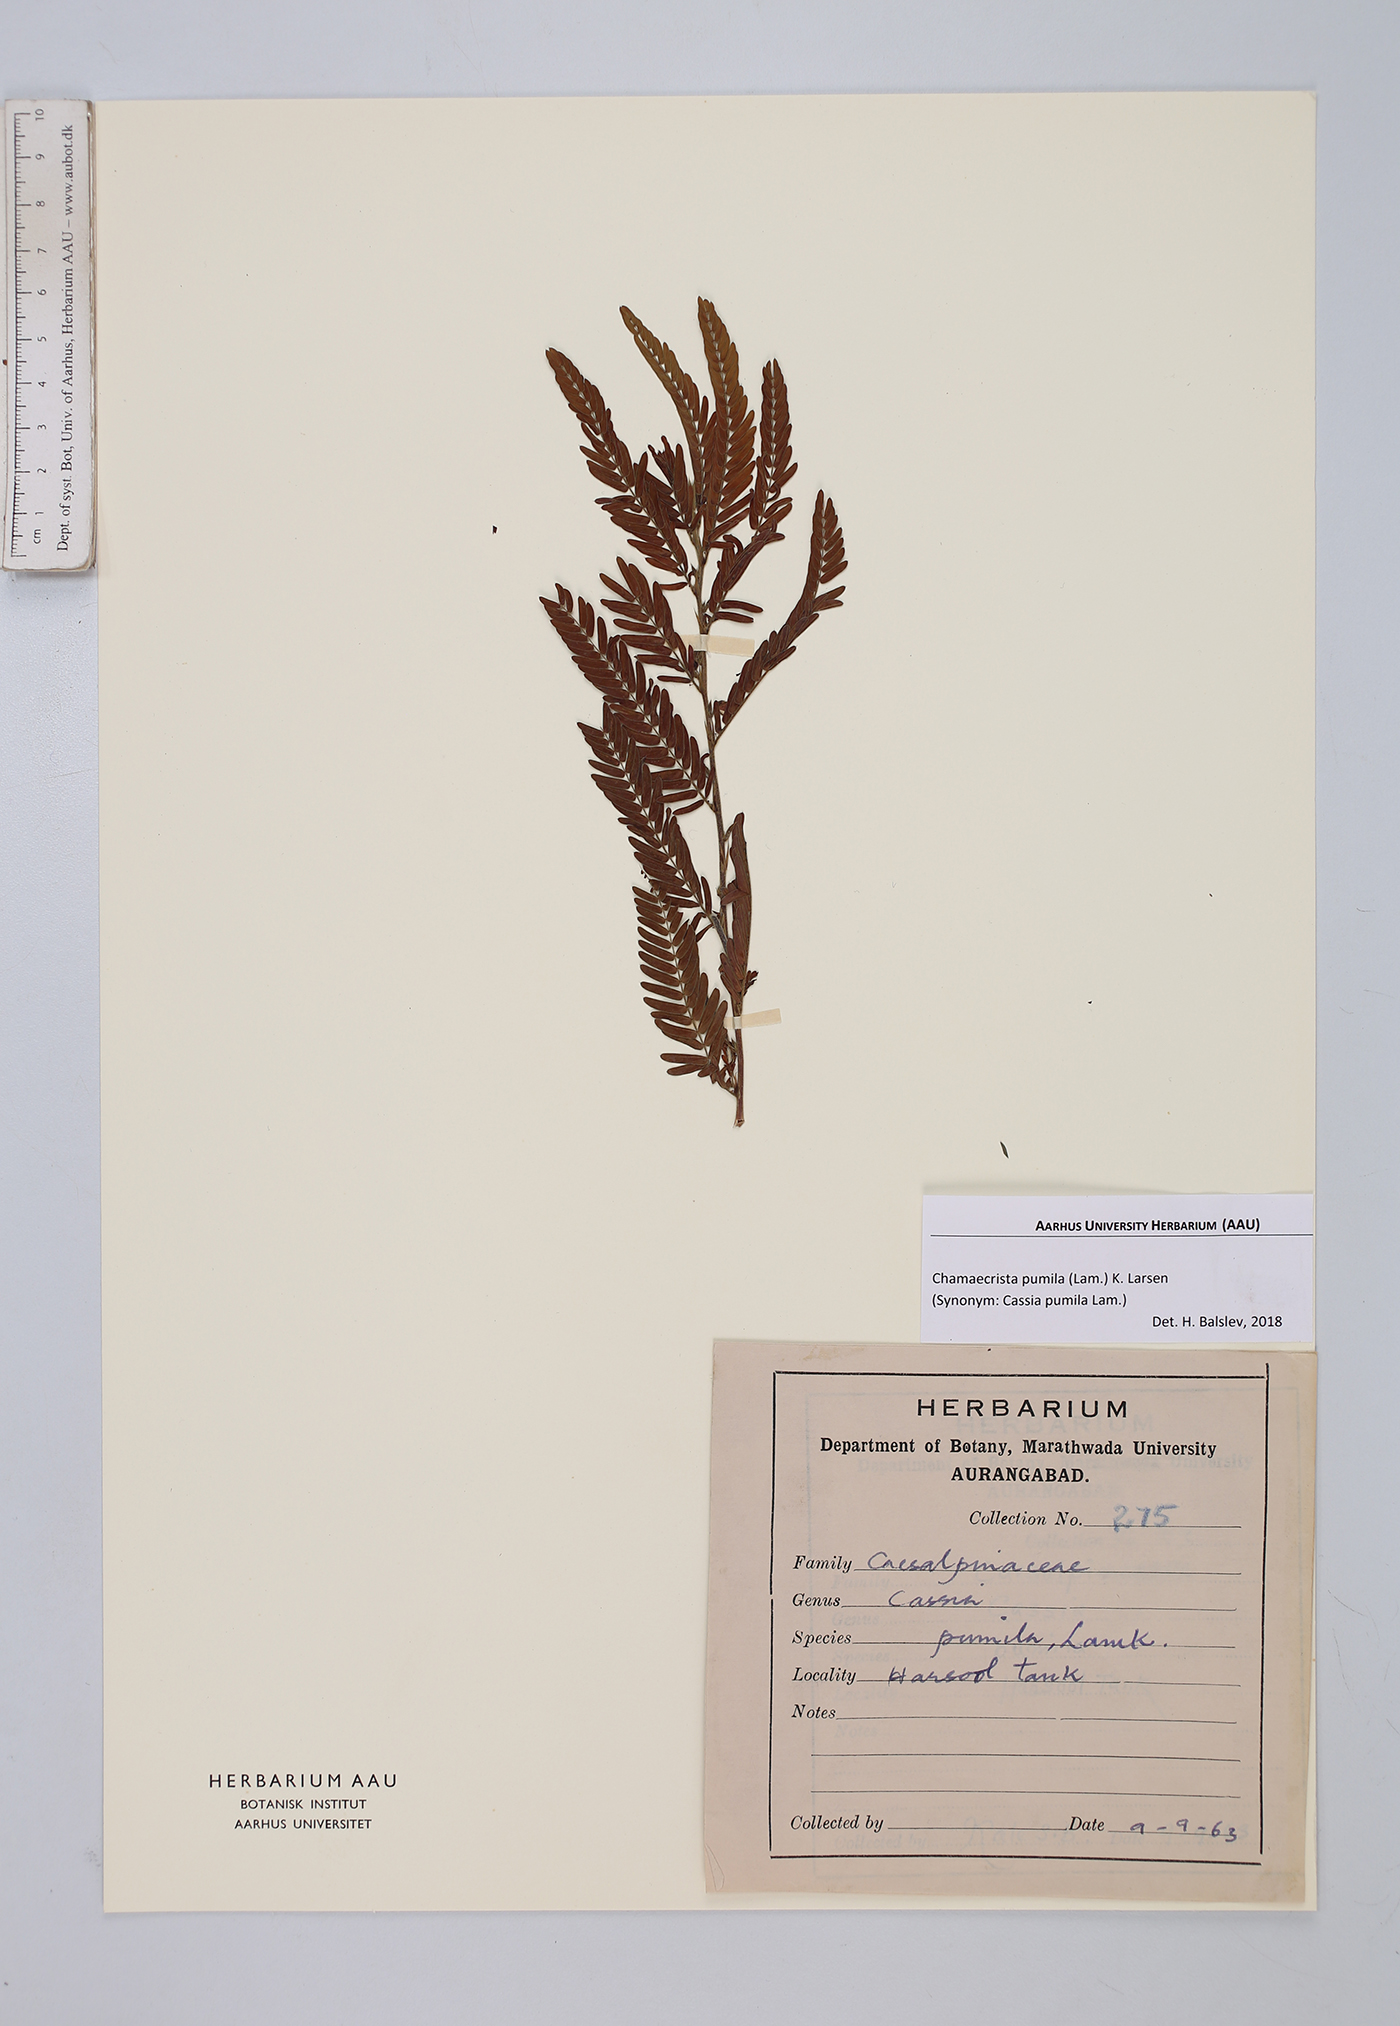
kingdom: Plantae
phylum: Tracheophyta
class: Magnoliopsida
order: Fabales
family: Fabaceae
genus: Chamaecrista
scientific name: Chamaecrista pumila
